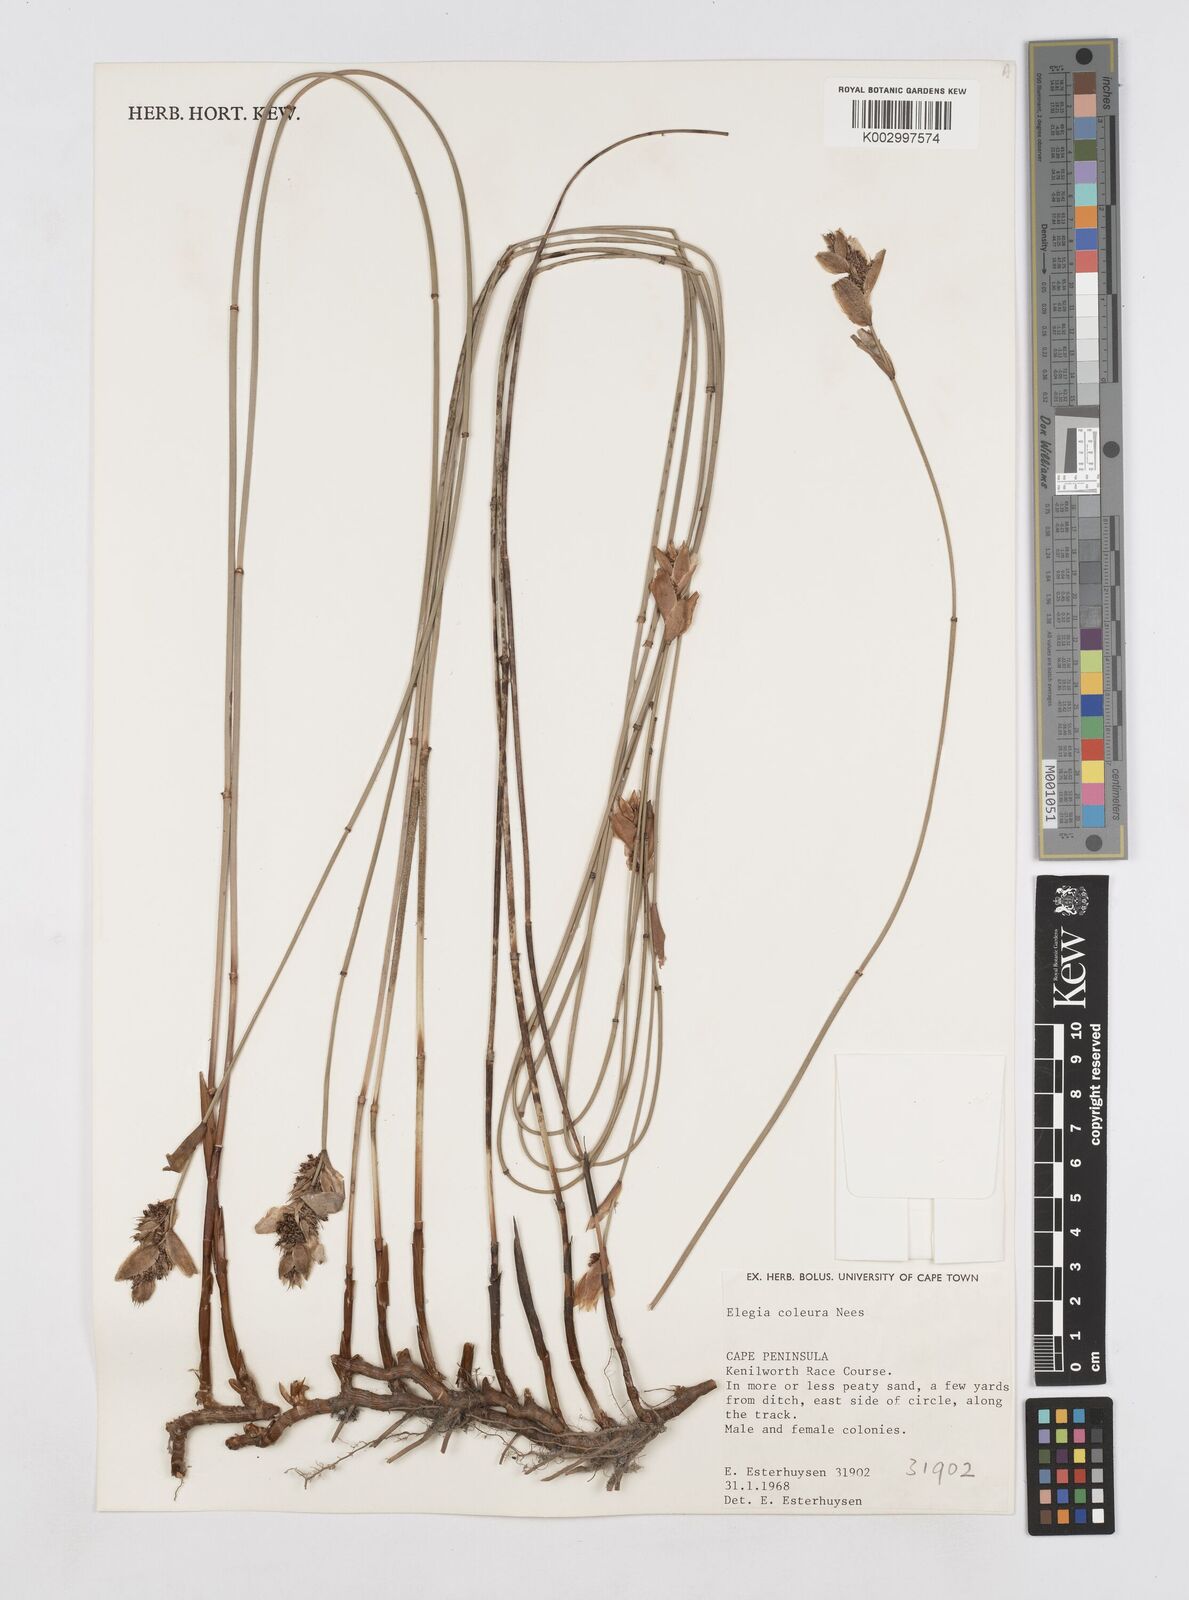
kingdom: Plantae
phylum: Tracheophyta
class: Liliopsida
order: Poales
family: Restionaceae
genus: Elegia
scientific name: Elegia coleura
